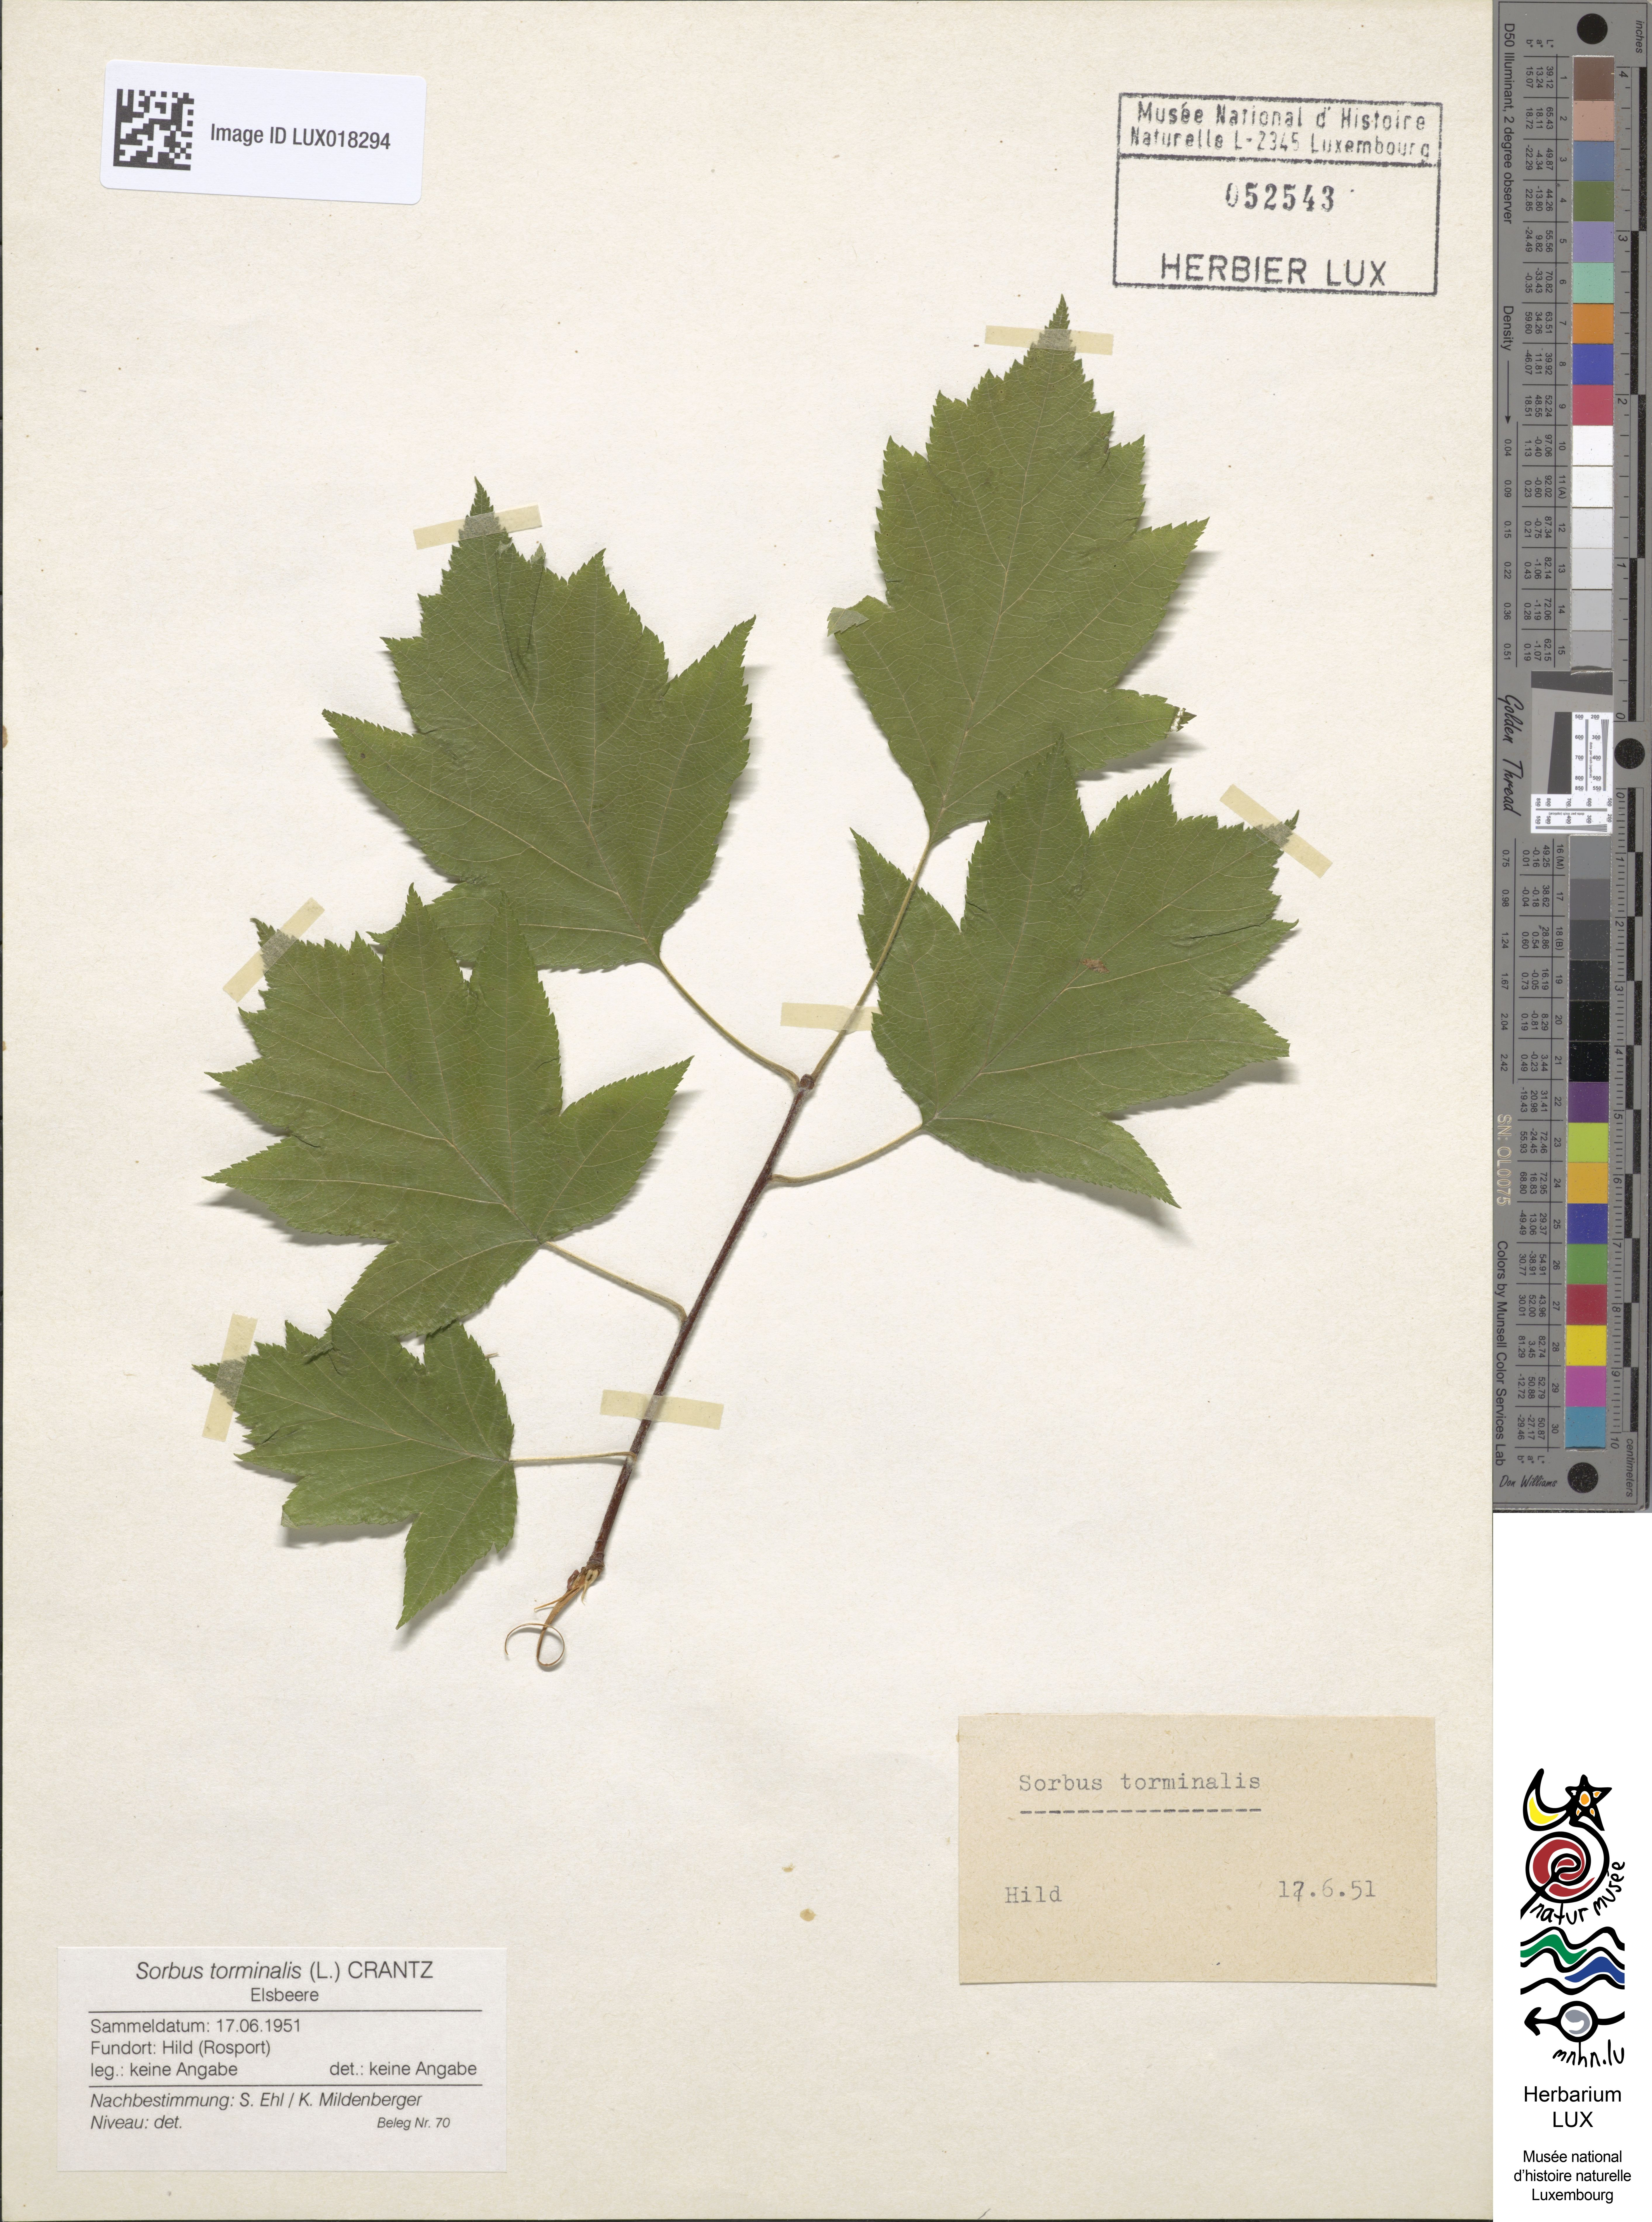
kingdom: Plantae
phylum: Tracheophyta
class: Magnoliopsida
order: Rosales
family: Rosaceae
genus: Torminalis
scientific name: Torminalis glaberrima
